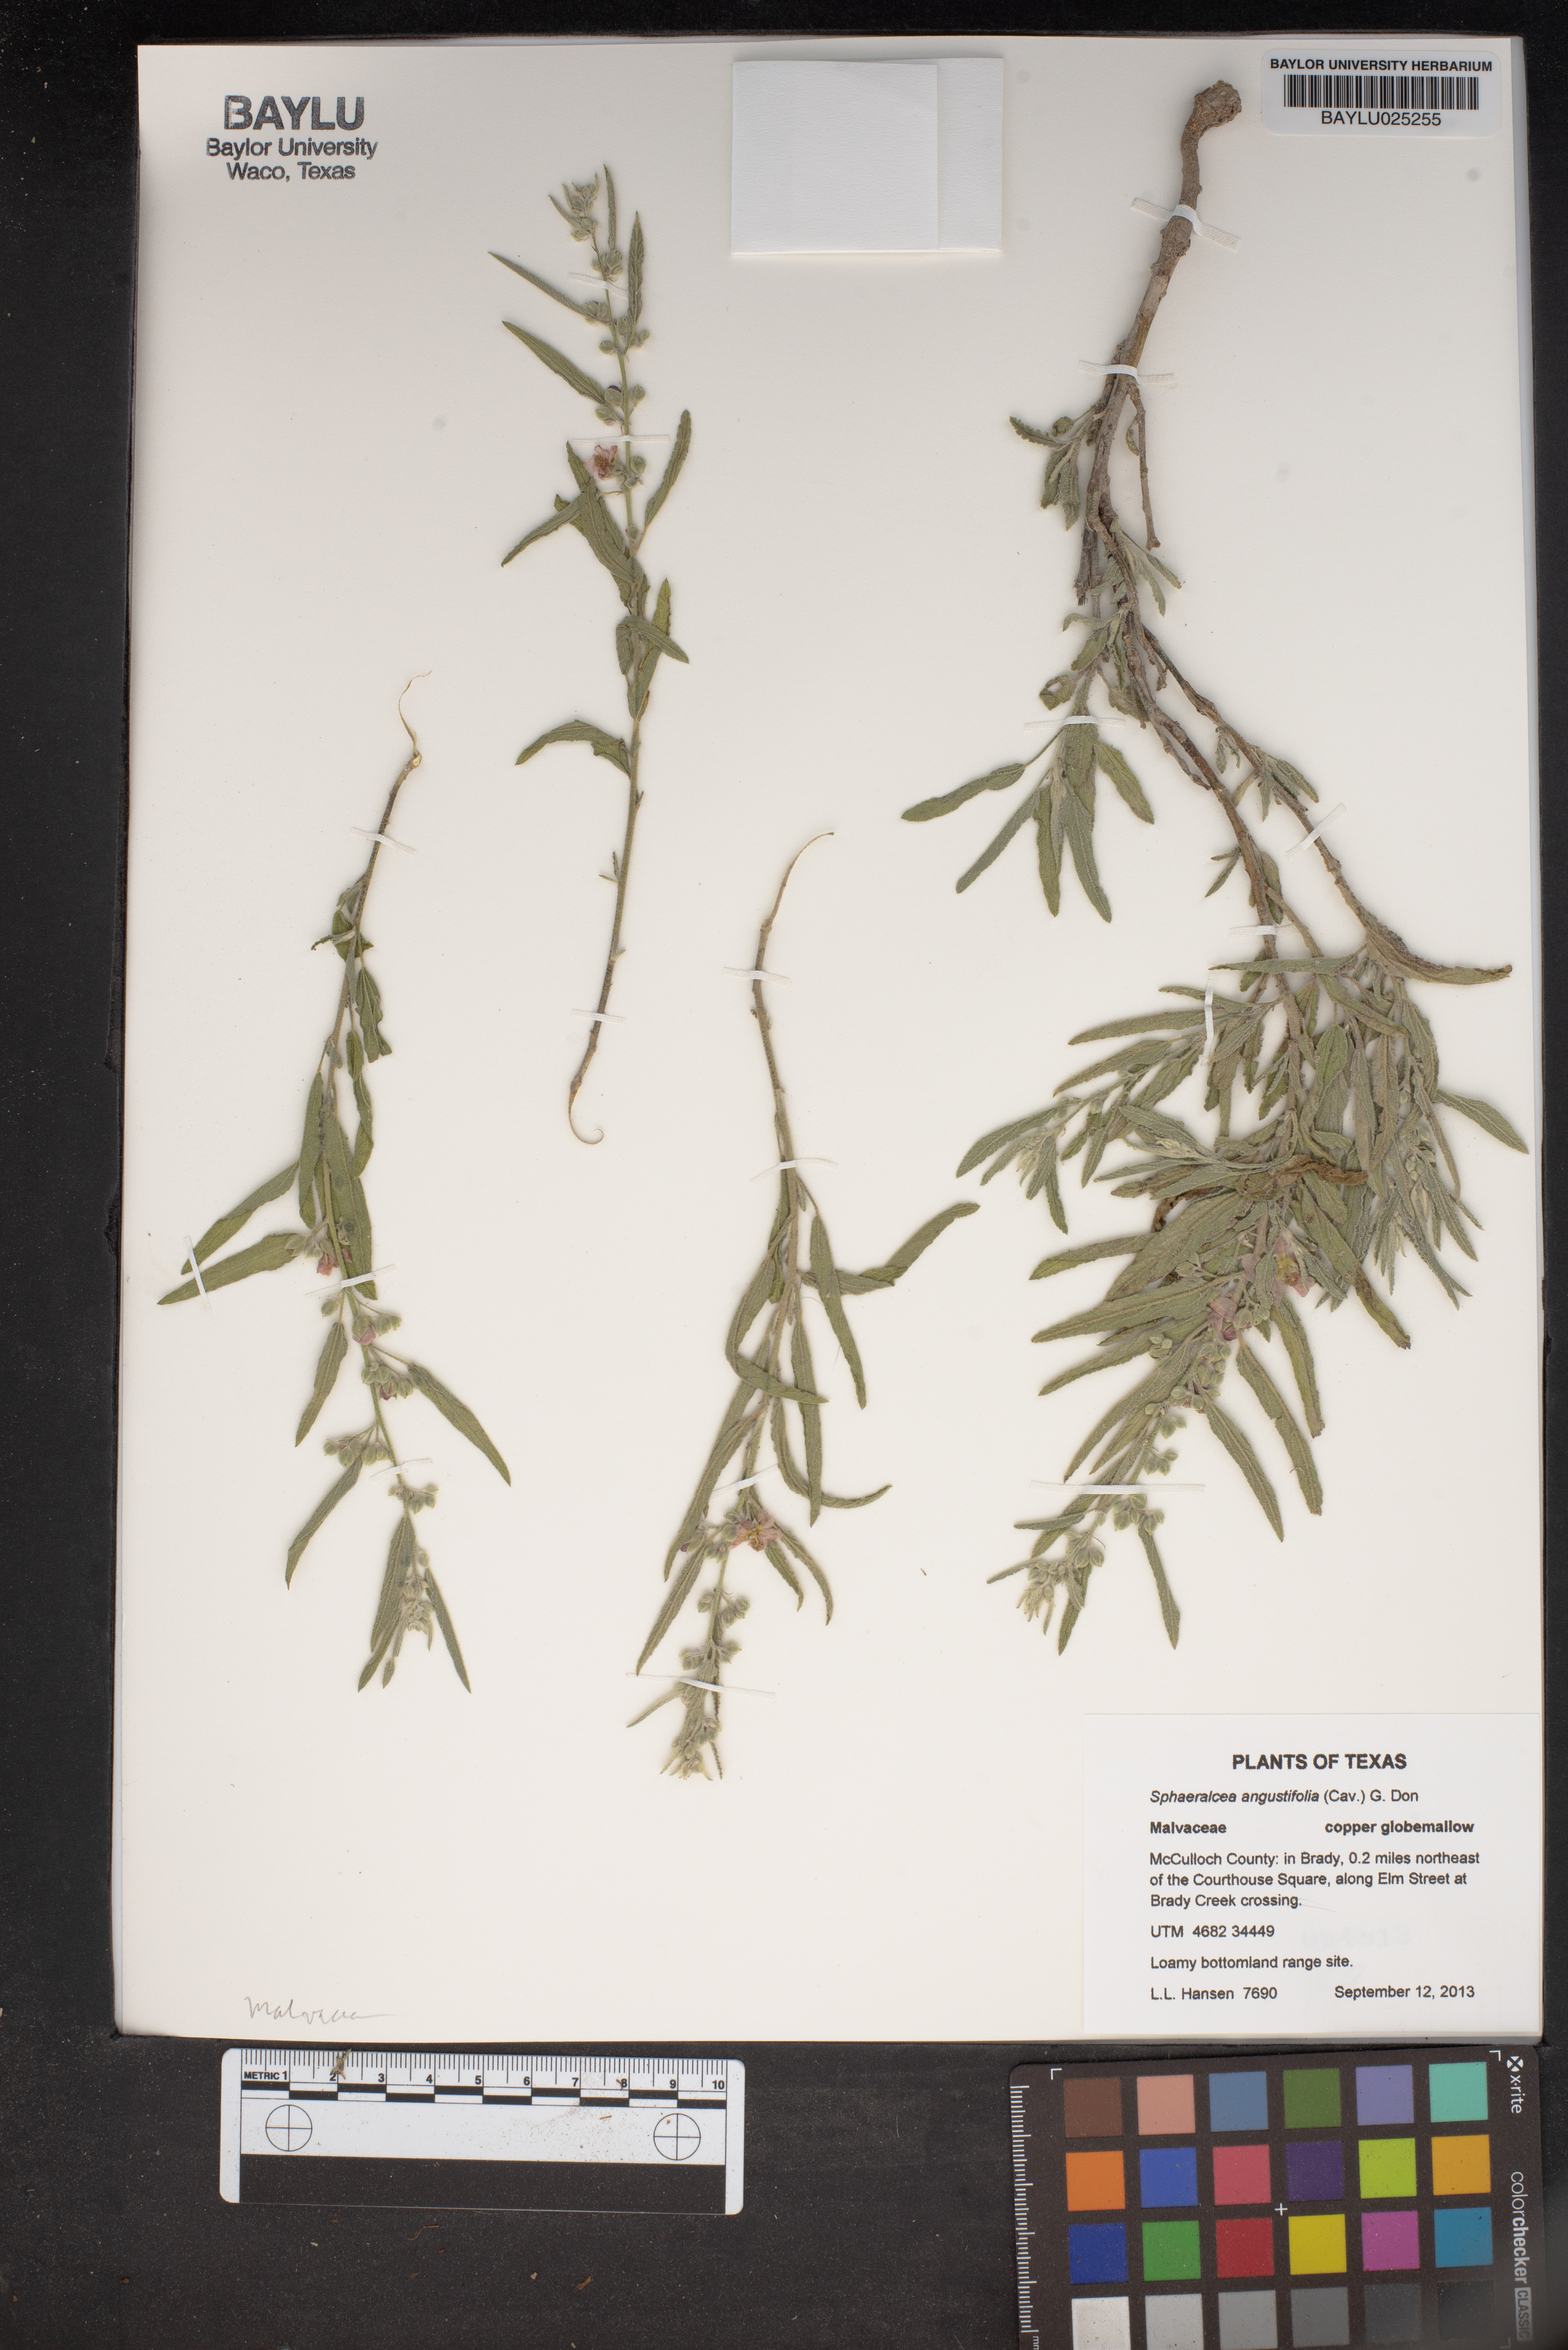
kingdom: Plantae
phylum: Tracheophyta
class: Magnoliopsida
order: Malvales
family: Malvaceae
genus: Sphaeralcea
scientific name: Sphaeralcea angustifolia
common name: Copper globe-mallow
